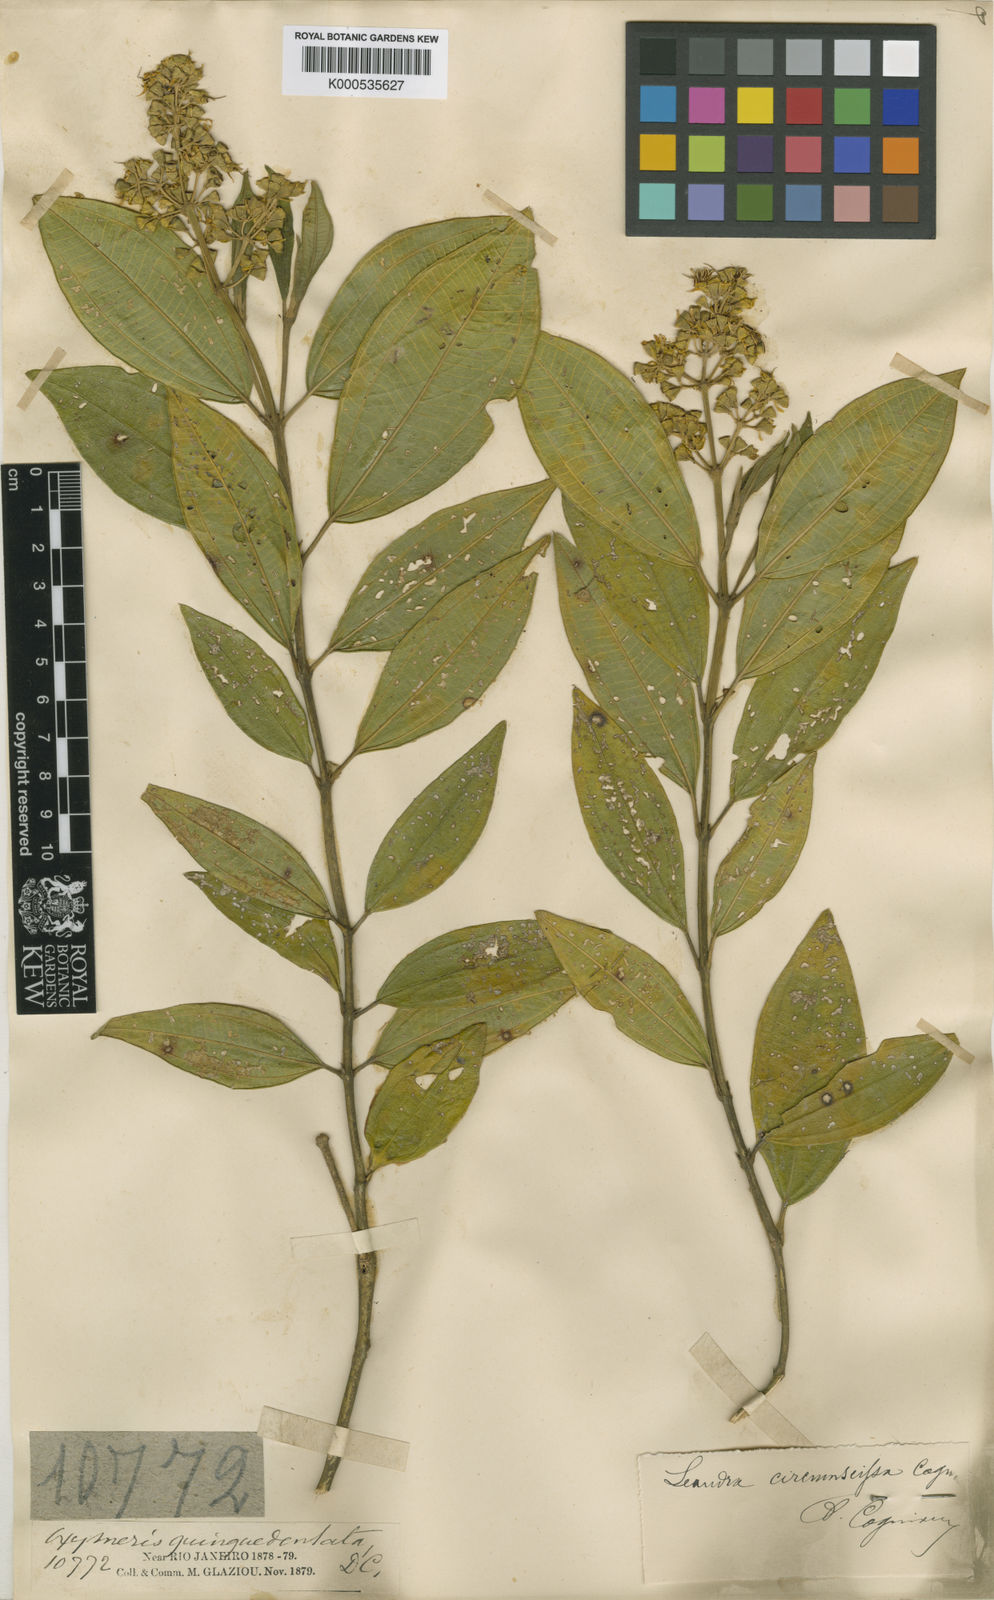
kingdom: Plantae
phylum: Tracheophyta
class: Magnoliopsida
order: Myrtales
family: Melastomataceae
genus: Miconia
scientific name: Miconia circumscissa
